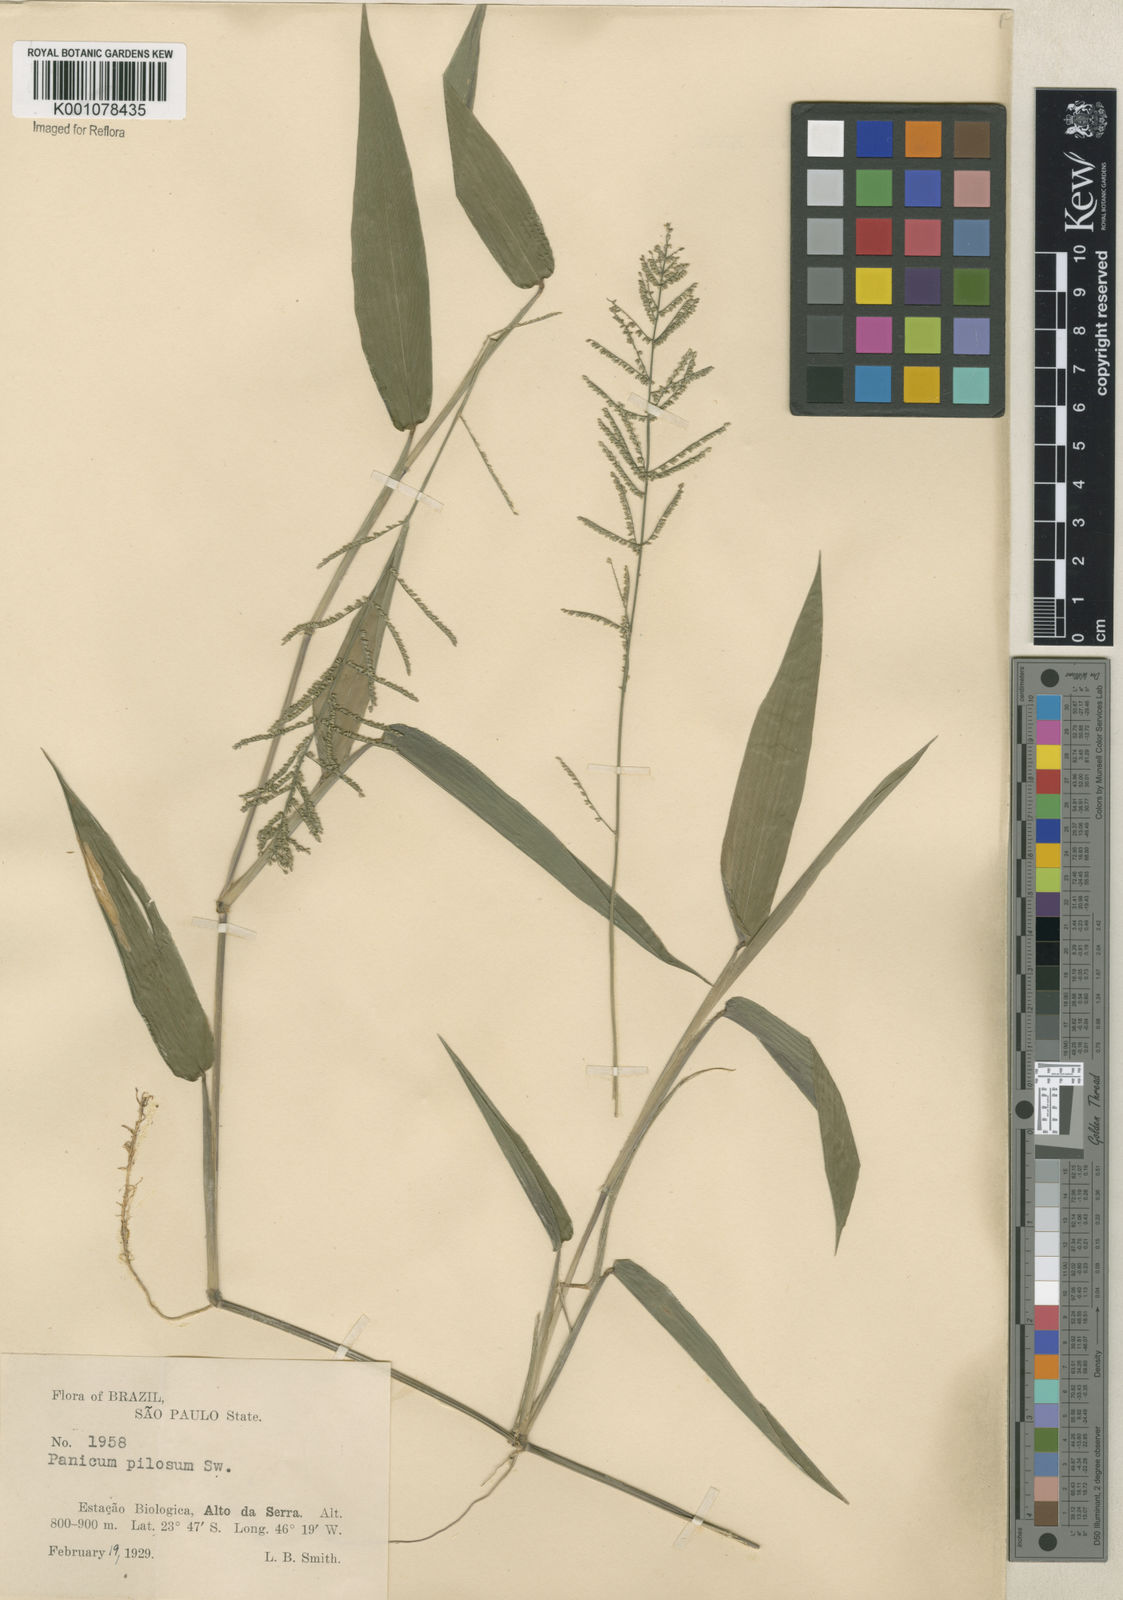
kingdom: Plantae
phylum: Tracheophyta
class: Liliopsida
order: Poales
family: Poaceae
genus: Rugoloa
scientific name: Rugoloa pilosa
